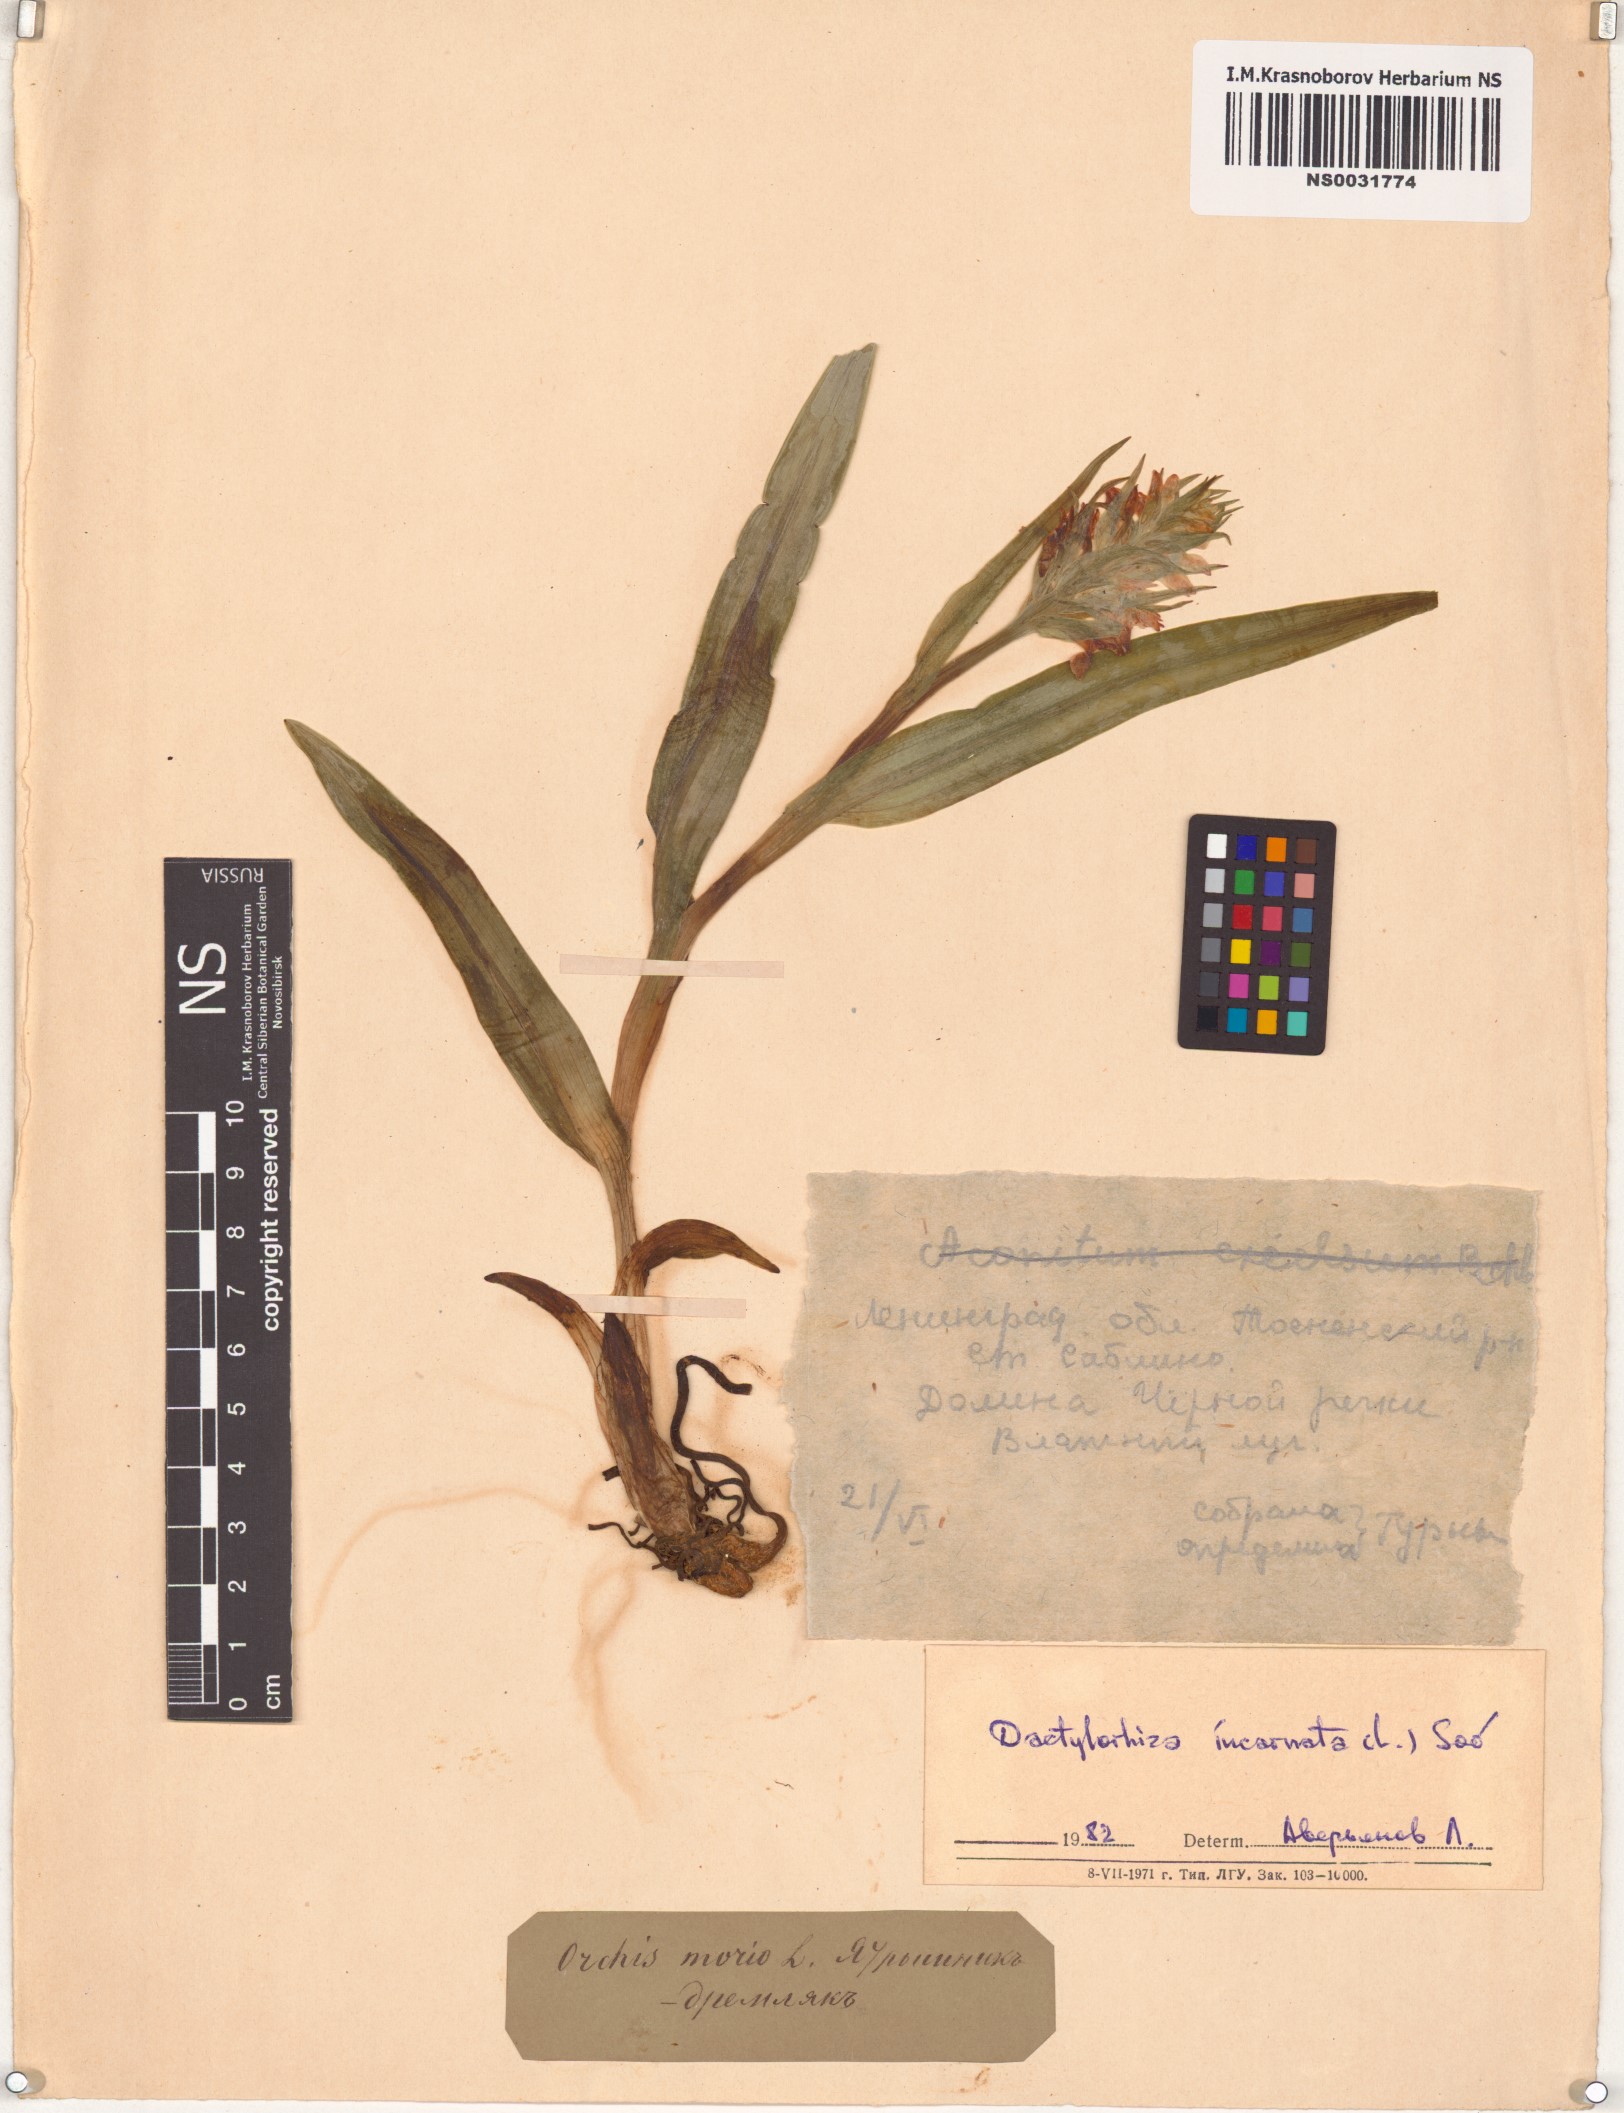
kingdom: Plantae
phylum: Tracheophyta
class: Liliopsida
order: Asparagales
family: Orchidaceae
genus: Dactylorhiza
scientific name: Dactylorhiza incarnata
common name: Early marsh-orchid
